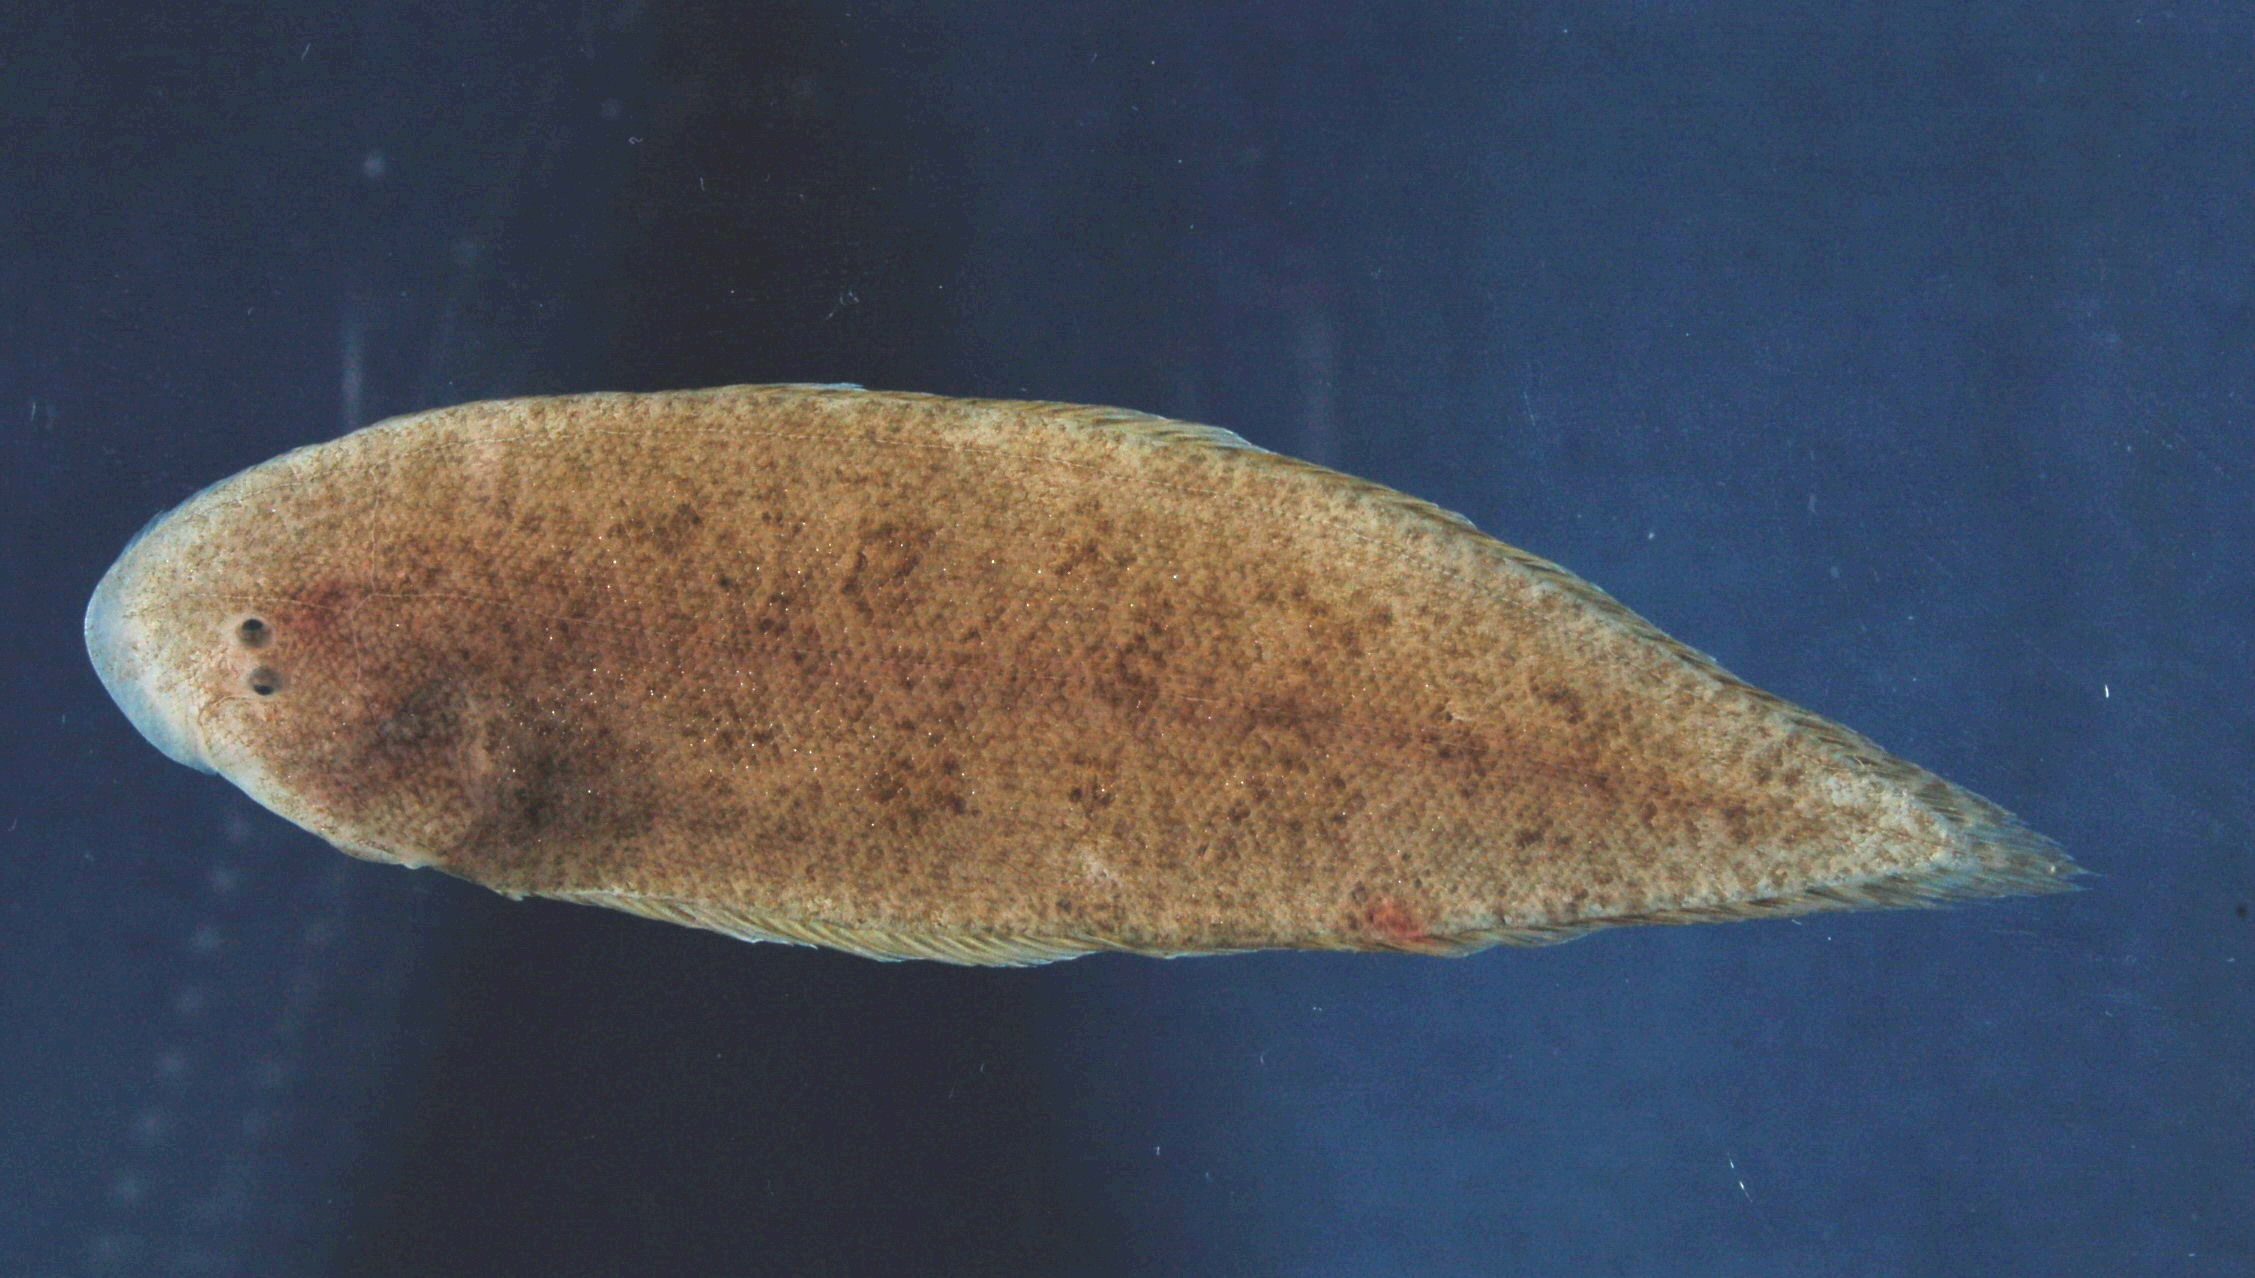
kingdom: Animalia
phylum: Chordata
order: Pleuronectiformes
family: Cynoglossidae
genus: Cynoglossus
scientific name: Cynoglossus puncticeps
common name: Speckled tonguesole
